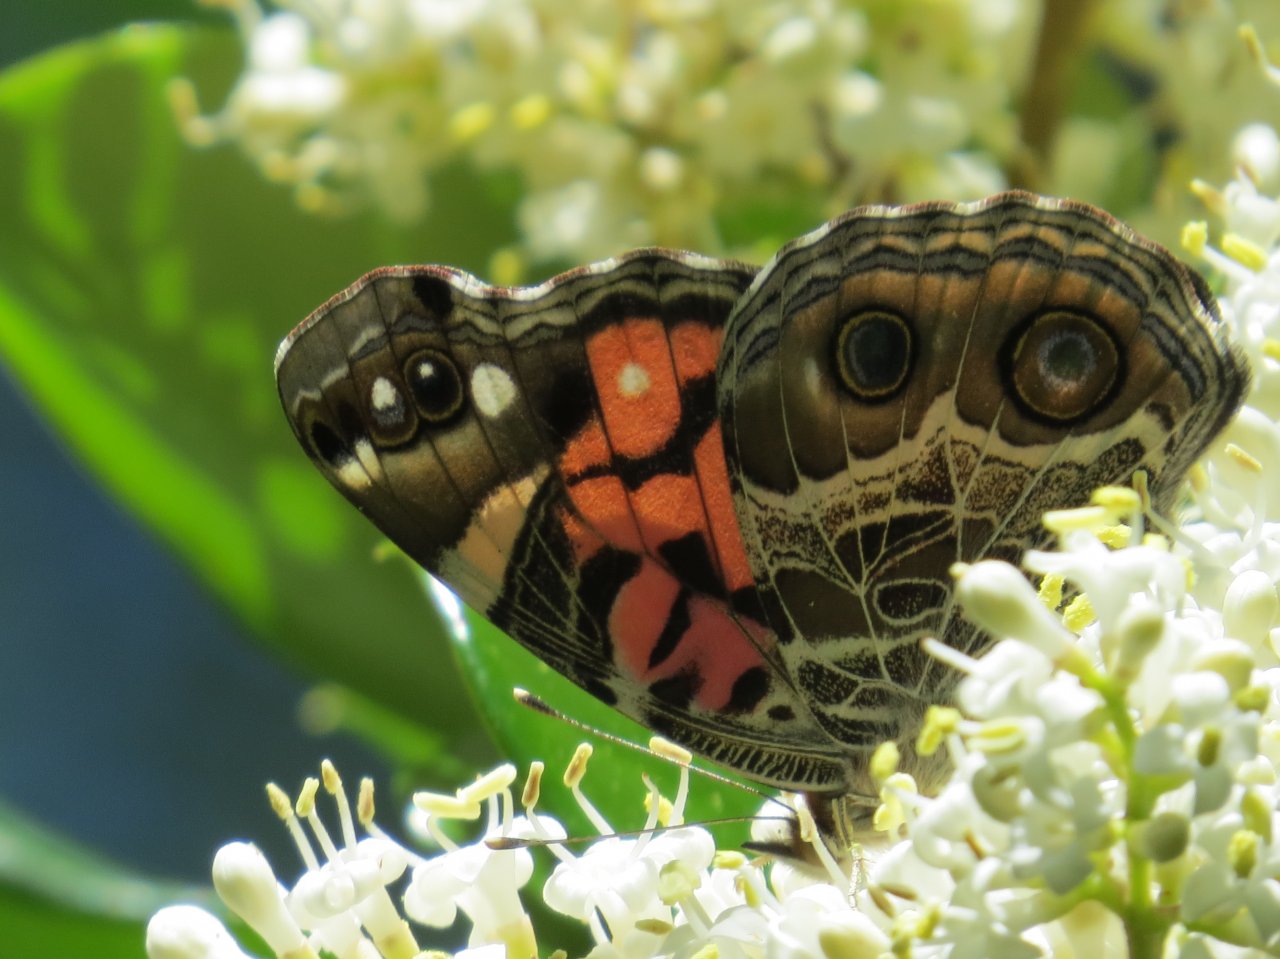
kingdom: Animalia
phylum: Arthropoda
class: Insecta
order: Lepidoptera
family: Nymphalidae
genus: Vanessa
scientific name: Vanessa virginiensis
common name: American Lady
